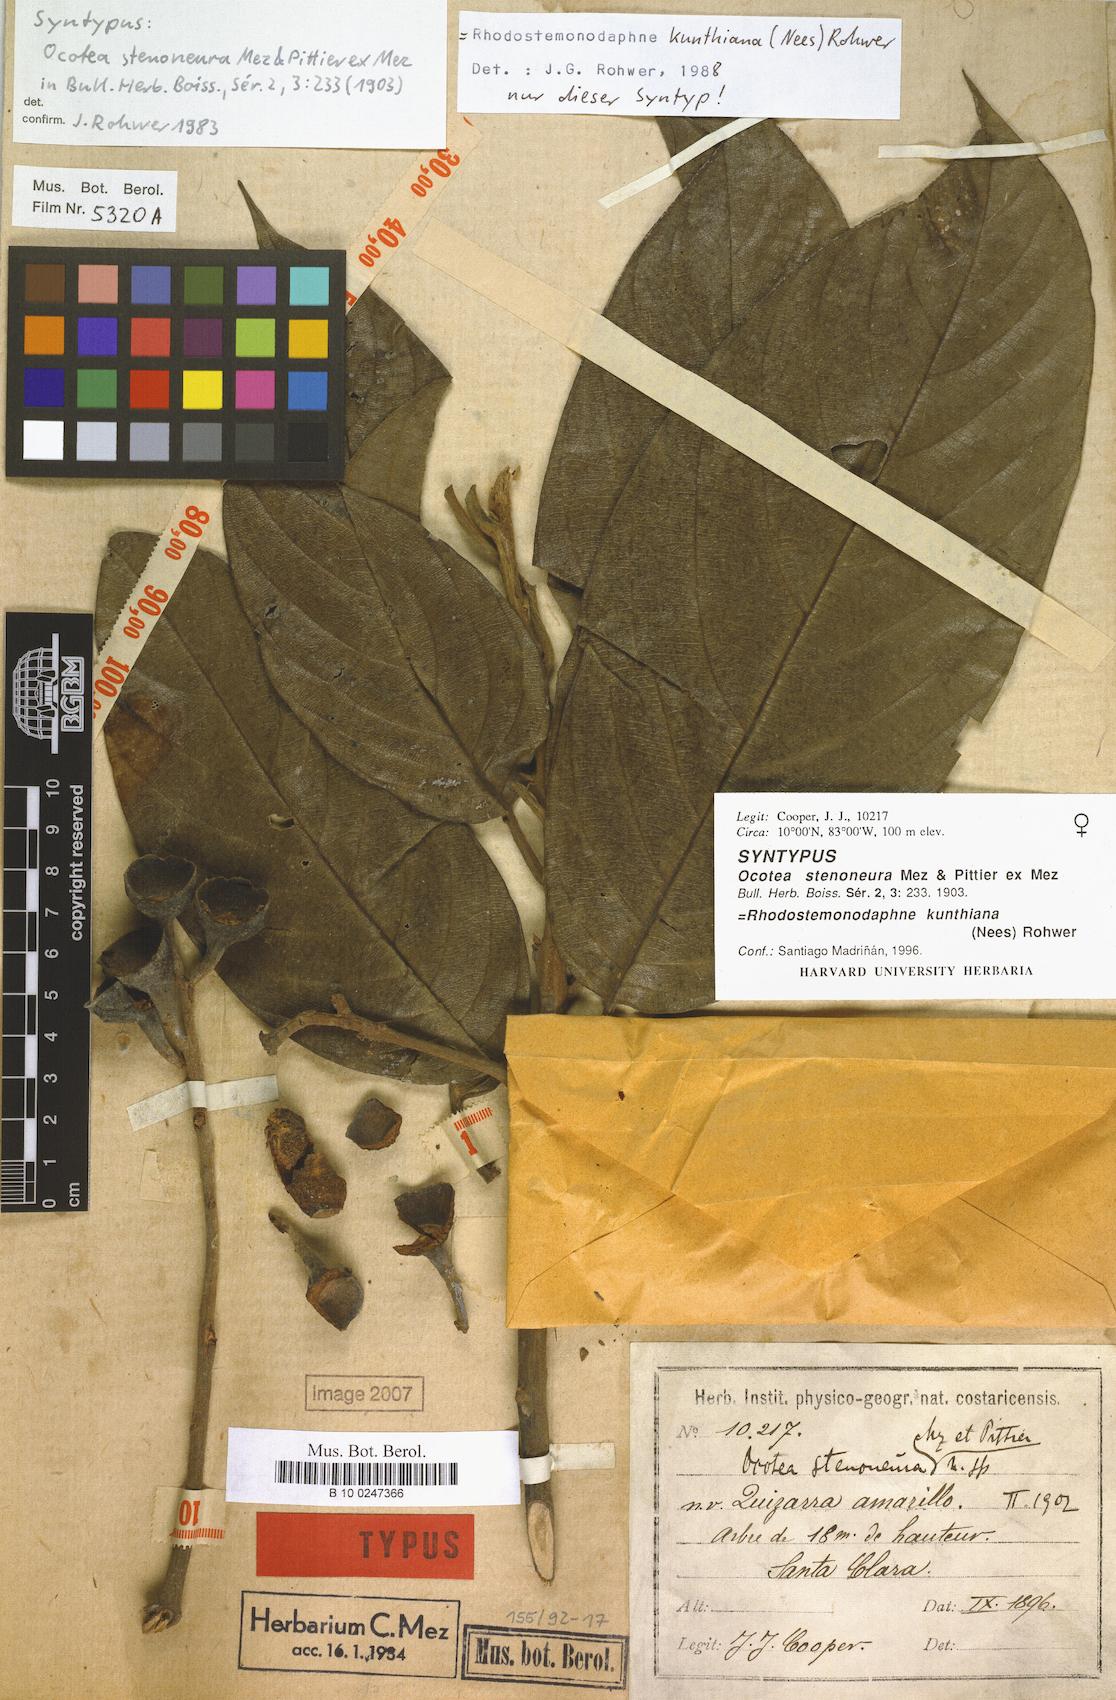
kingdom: Plantae
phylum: Tracheophyta
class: Magnoliopsida
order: Laurales
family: Lauraceae
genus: Rhodostemonodaphne
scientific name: Rhodostemonodaphne kunthiana
